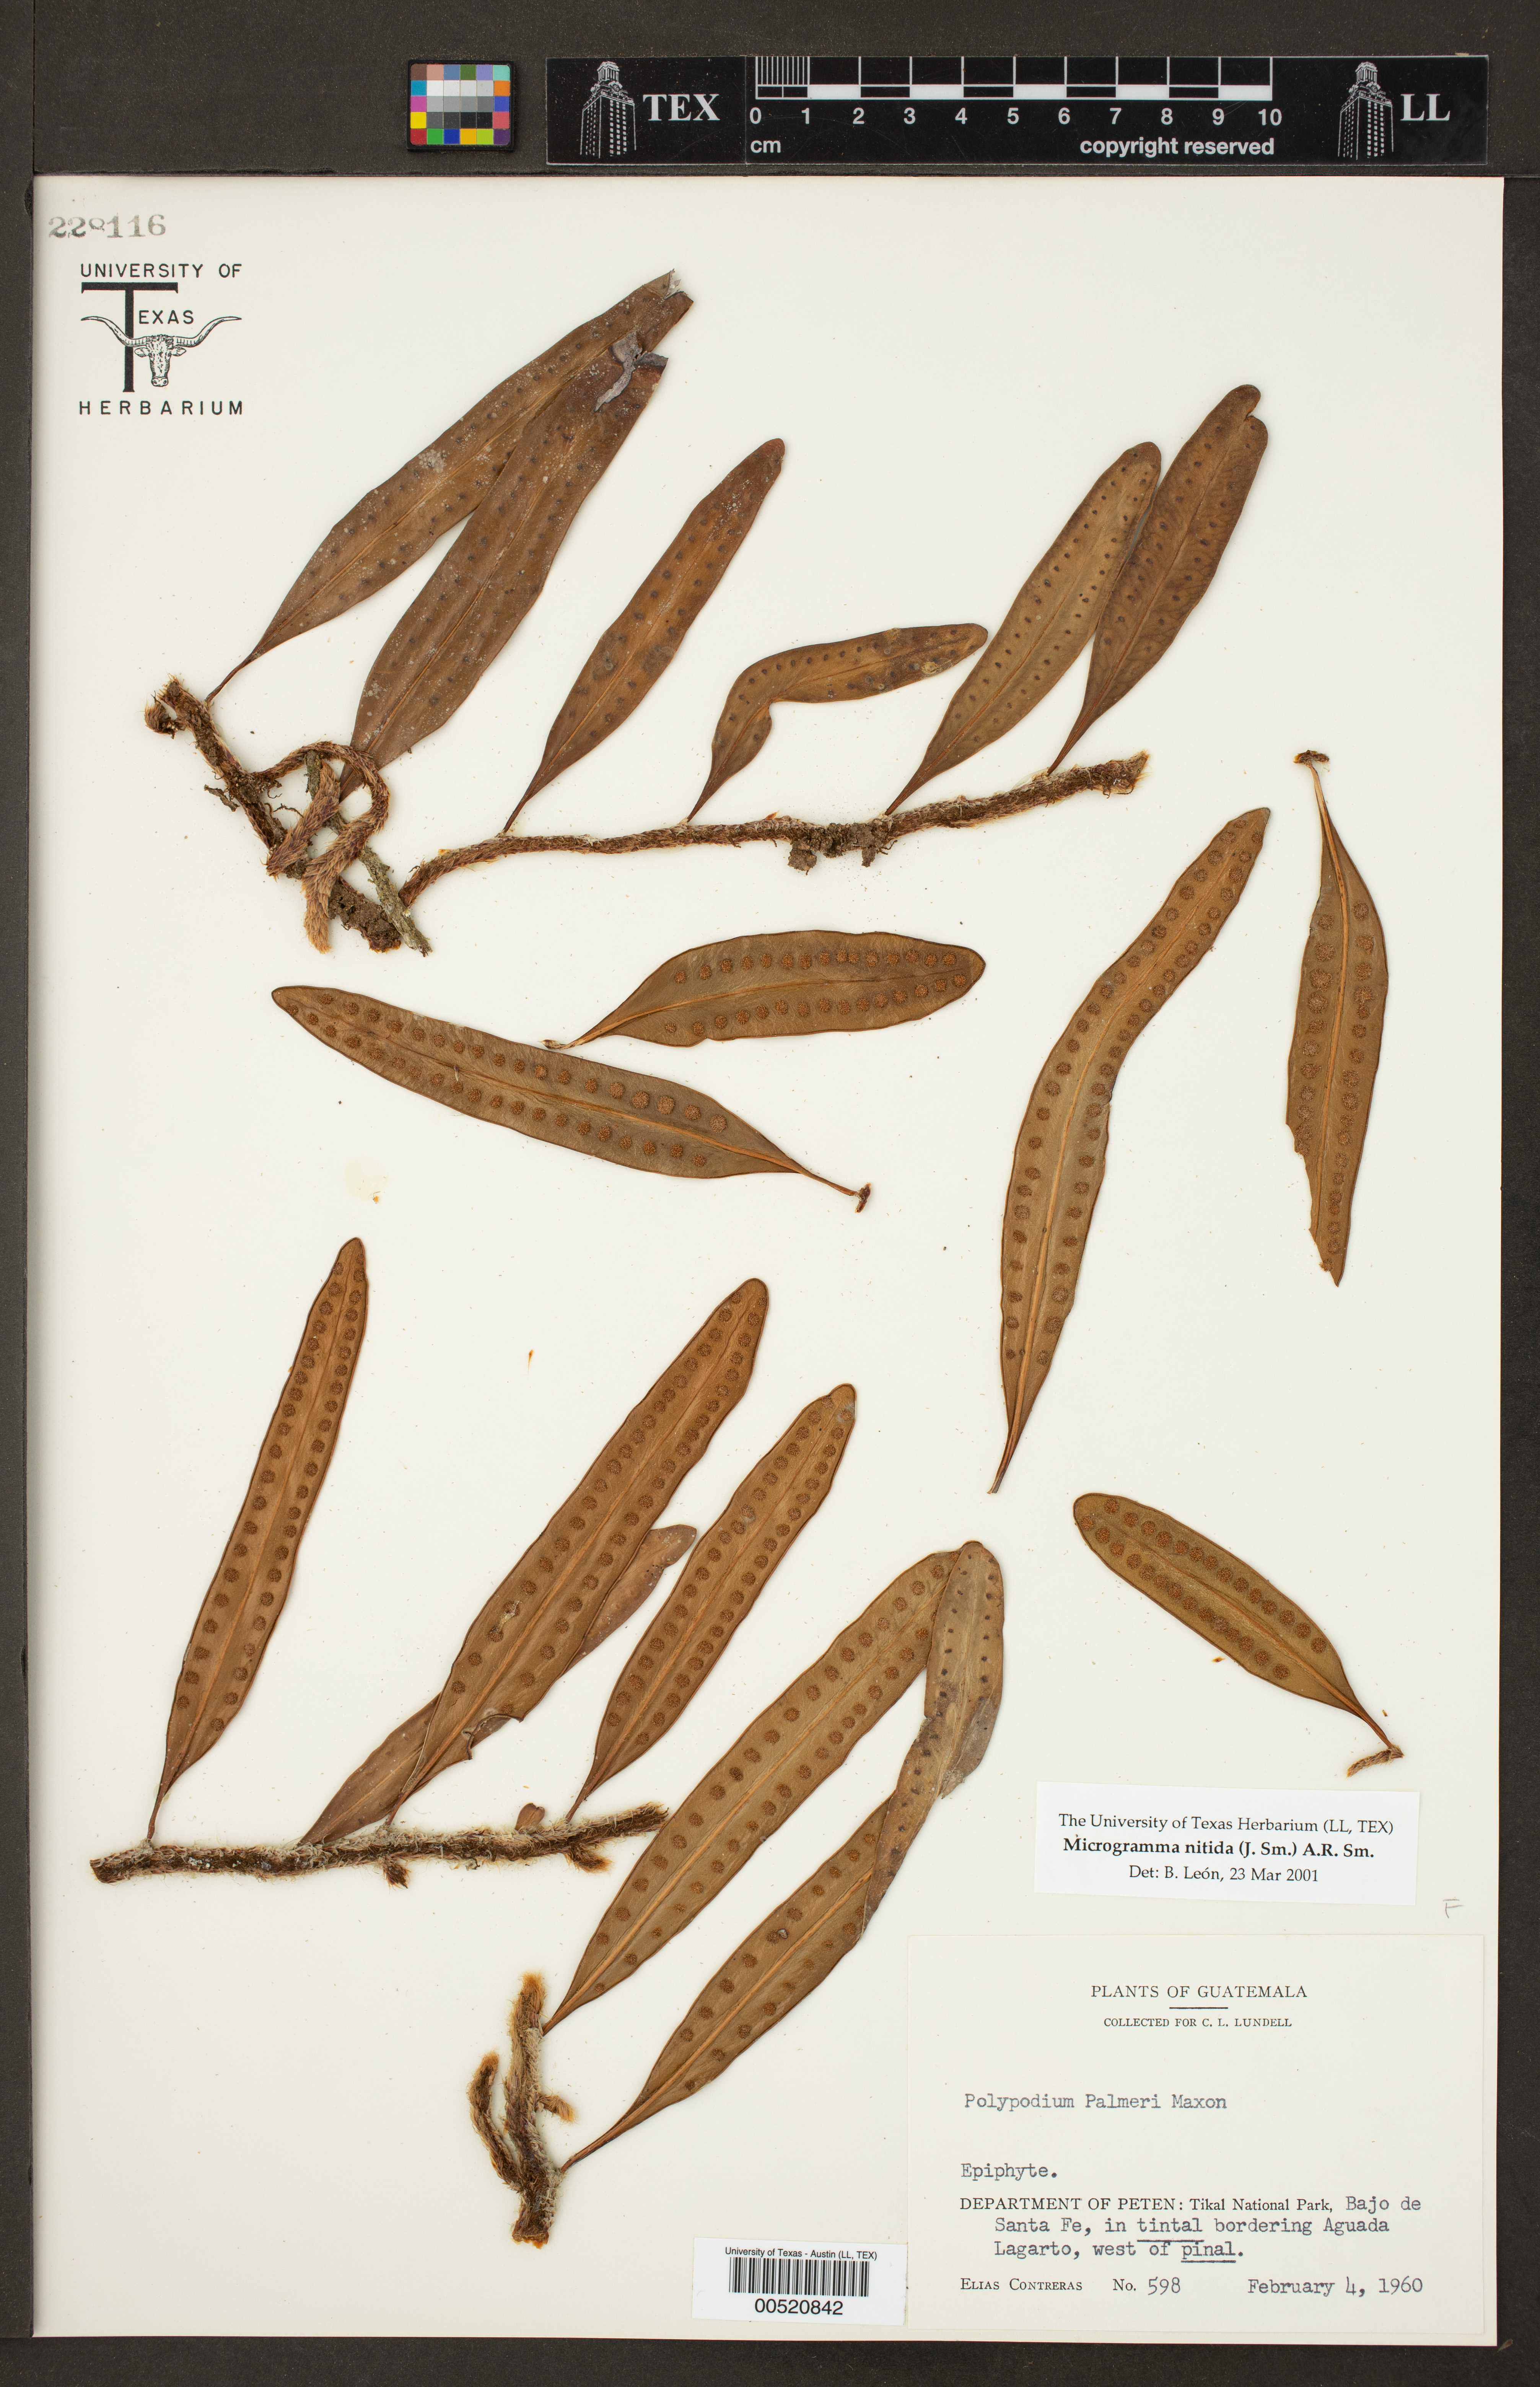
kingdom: Plantae
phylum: Tracheophyta
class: Polypodiopsida
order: Polypodiales
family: Polypodiaceae
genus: Microgramma
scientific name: Microgramma nitida
